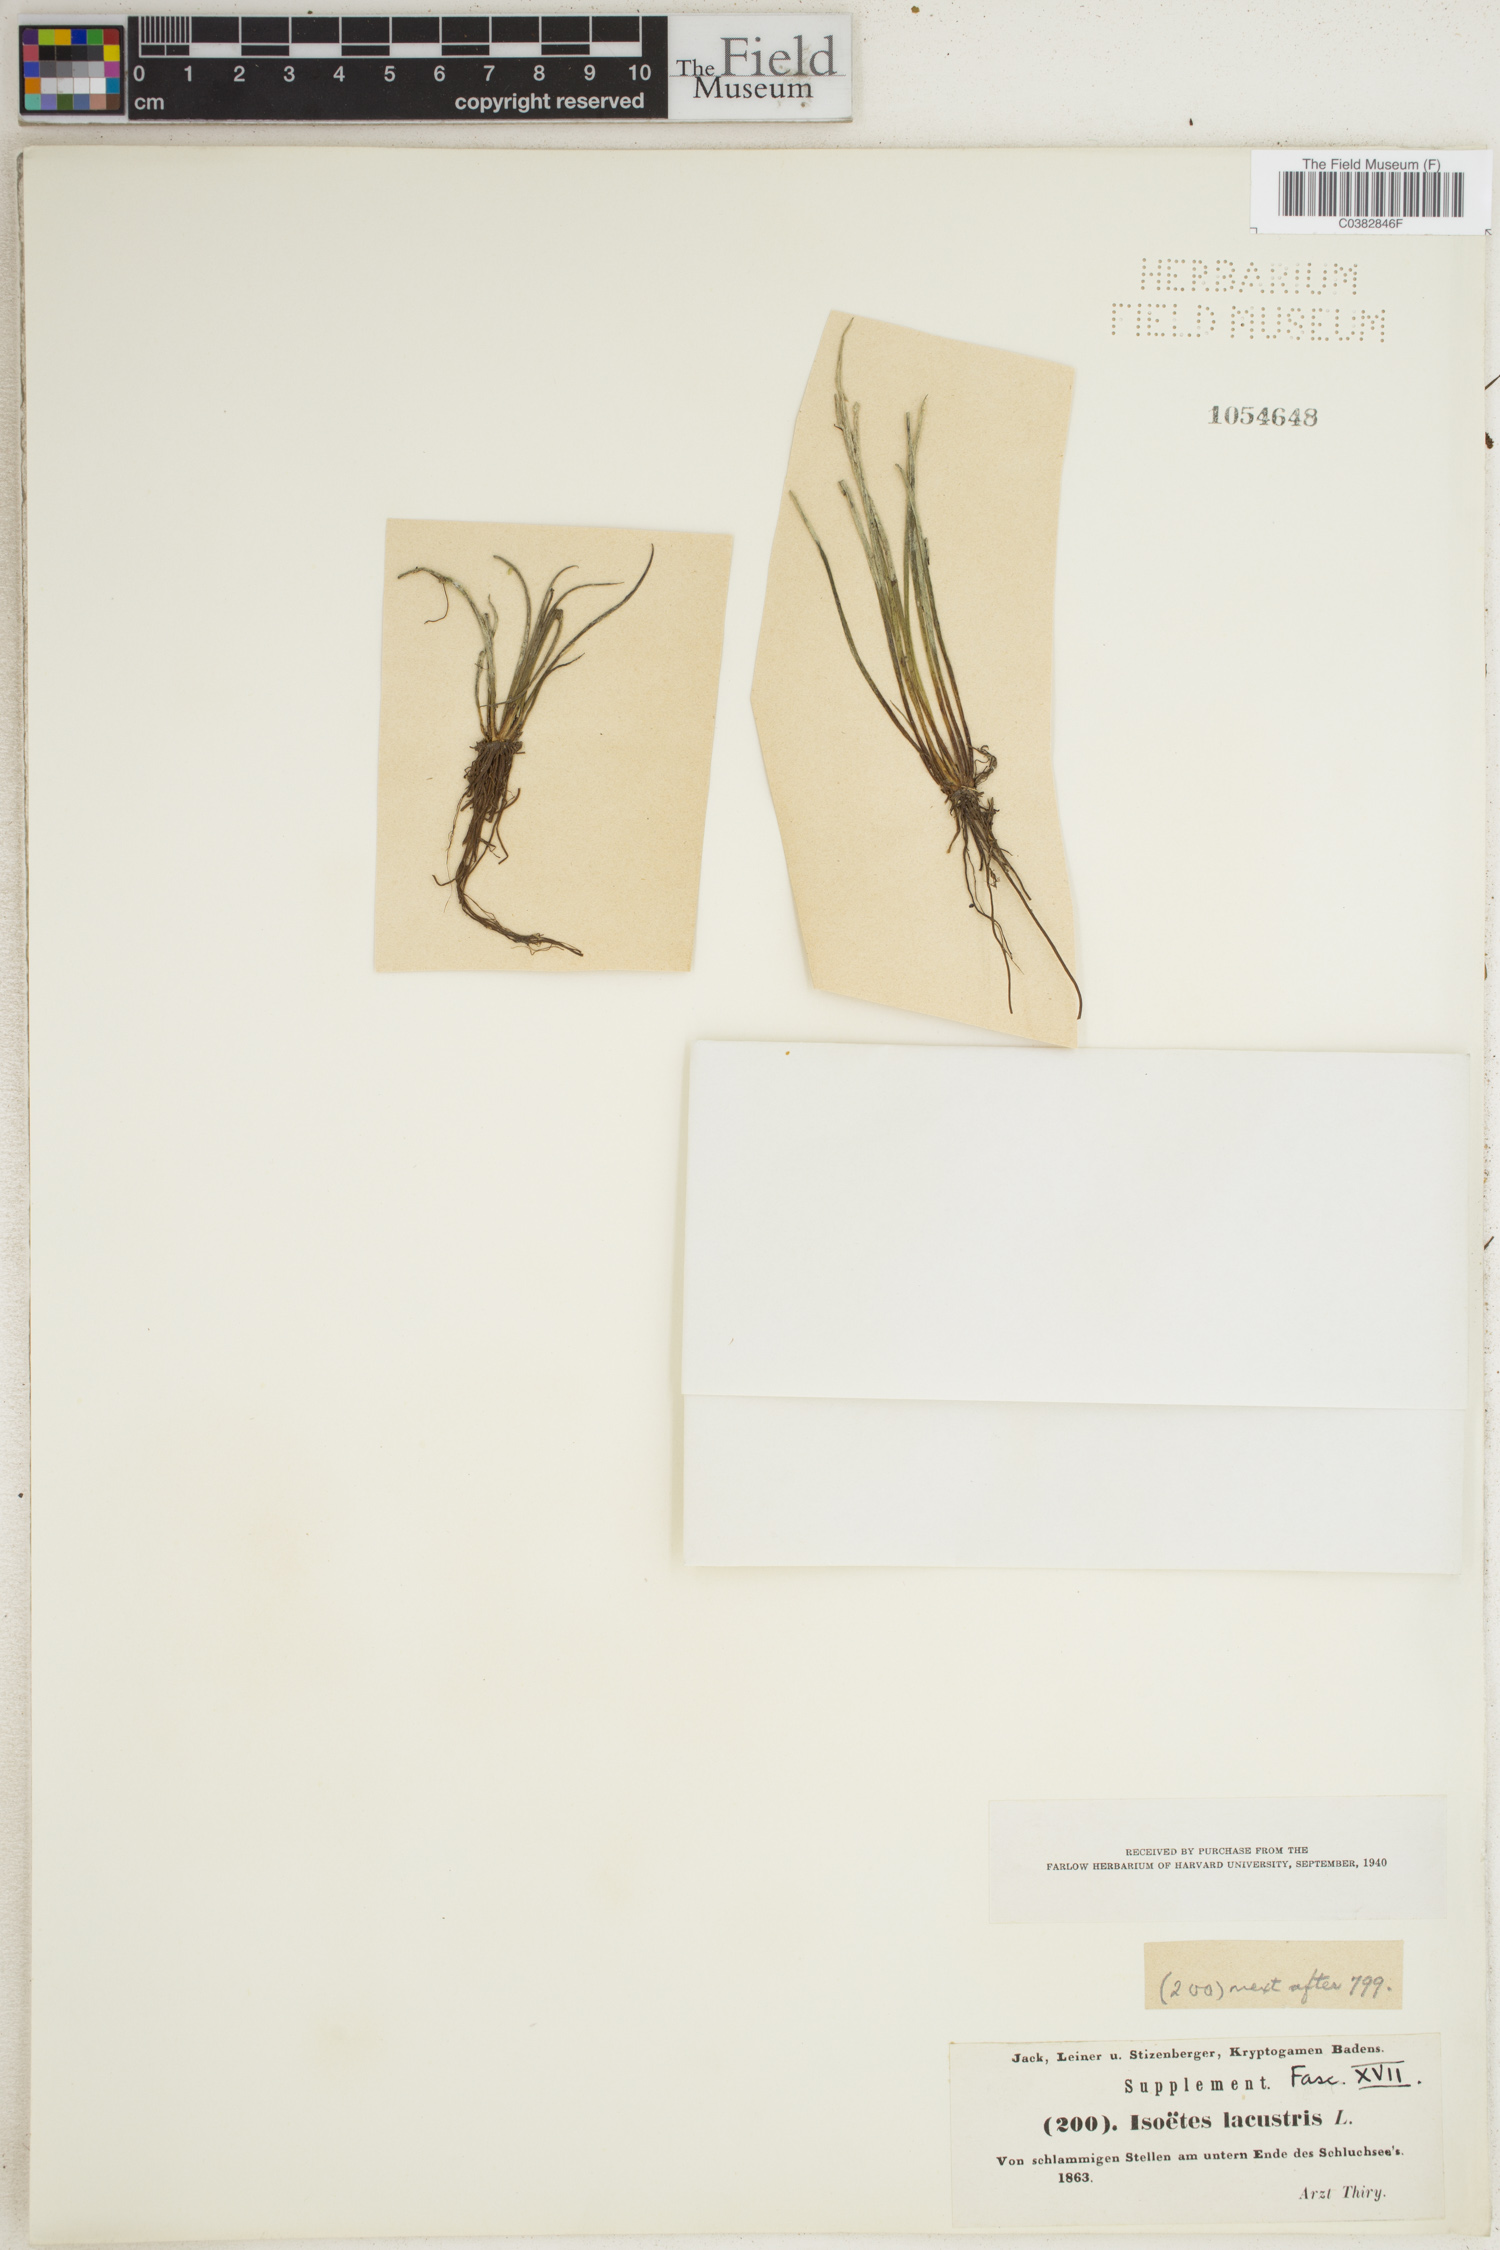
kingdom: Plantae
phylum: Tracheophyta
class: Lycopodiopsida
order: Isoetales
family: Isoetaceae
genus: Isoetes
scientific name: Isoetes lacustris
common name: Common quillwort
